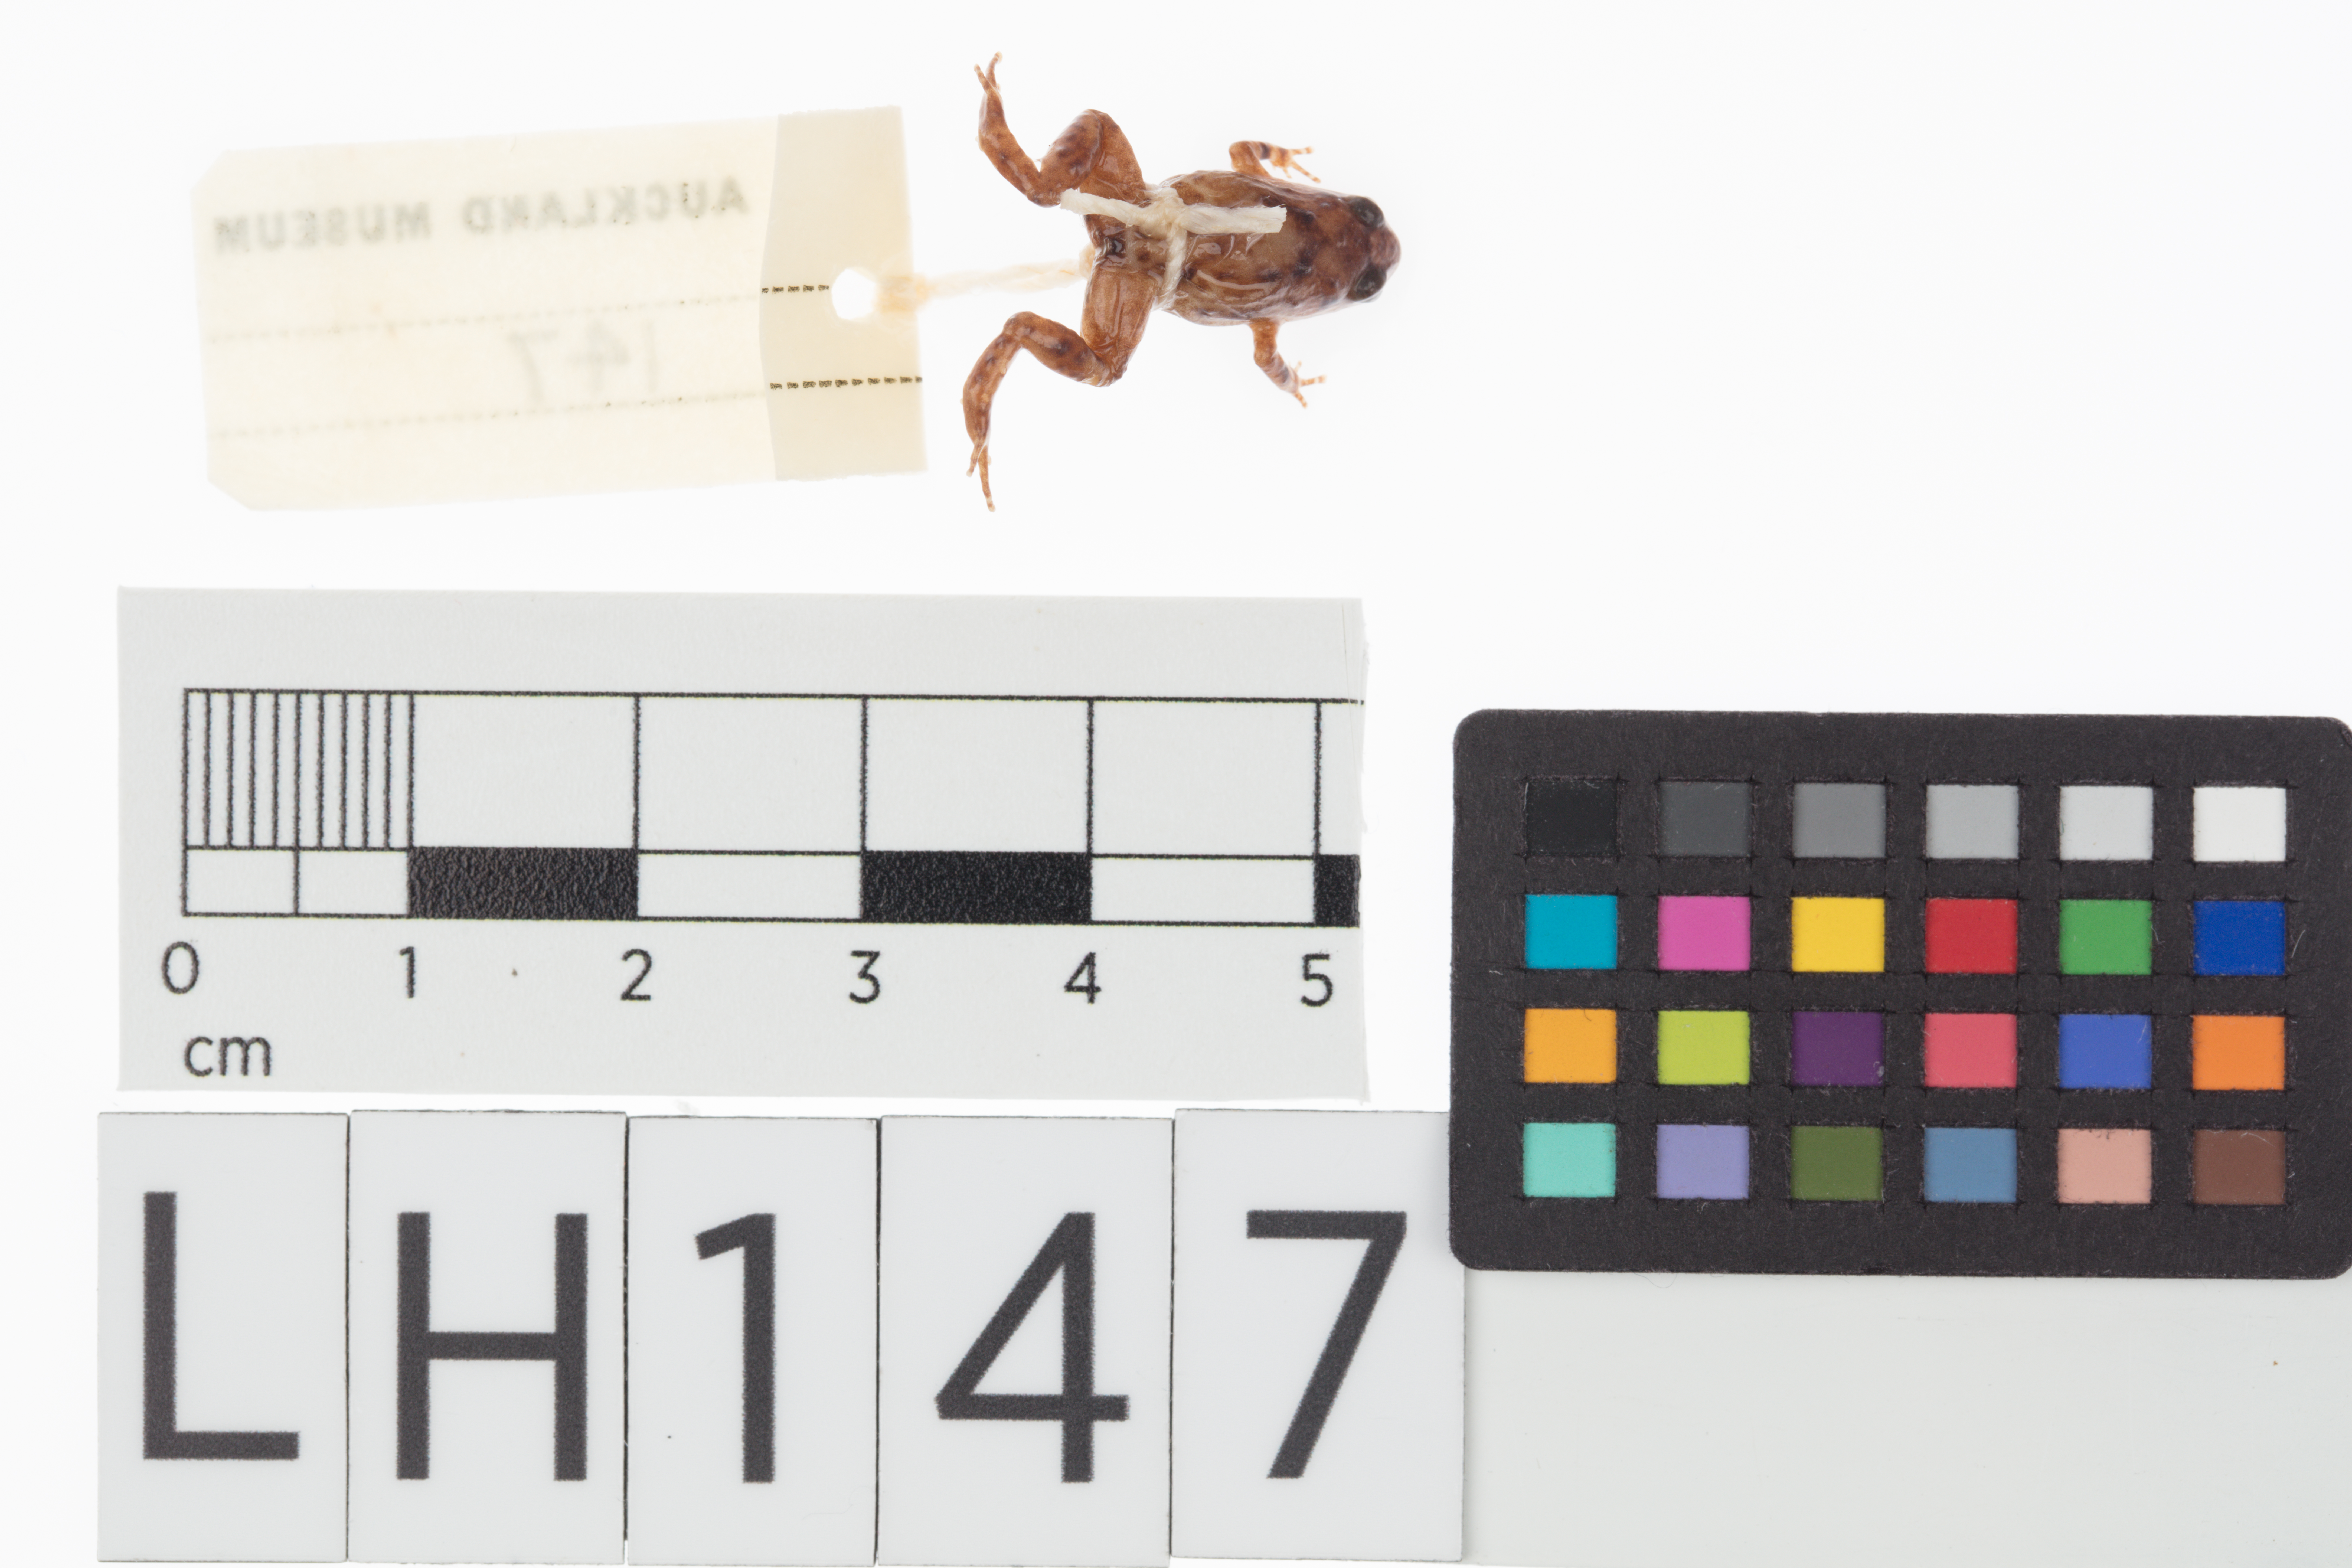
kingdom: Animalia
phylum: Chordata
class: Amphibia
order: Anura
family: Microhylidae
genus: Cophixalus
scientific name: Cophixalus hosmeri
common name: Clicking rainforest frog
